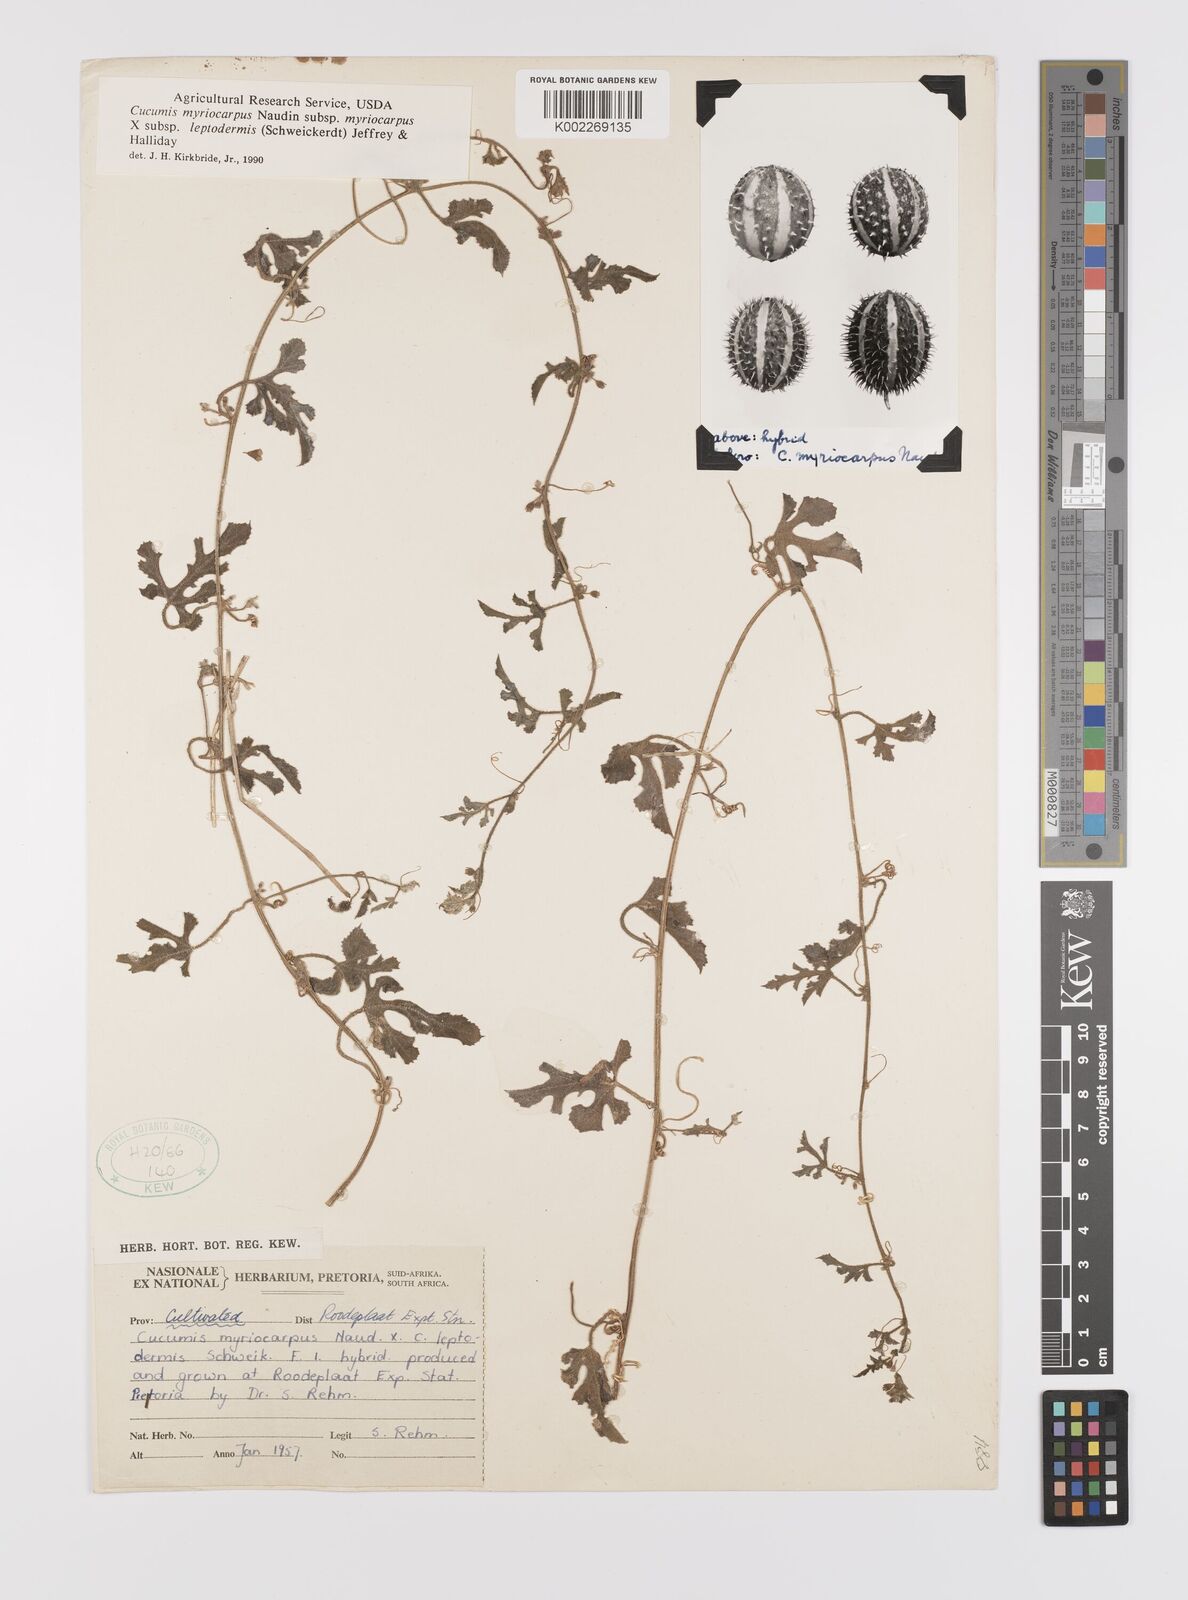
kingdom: Plantae
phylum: Tracheophyta
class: Magnoliopsida
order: Cucurbitales
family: Cucurbitaceae
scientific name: Cucurbitaceae
